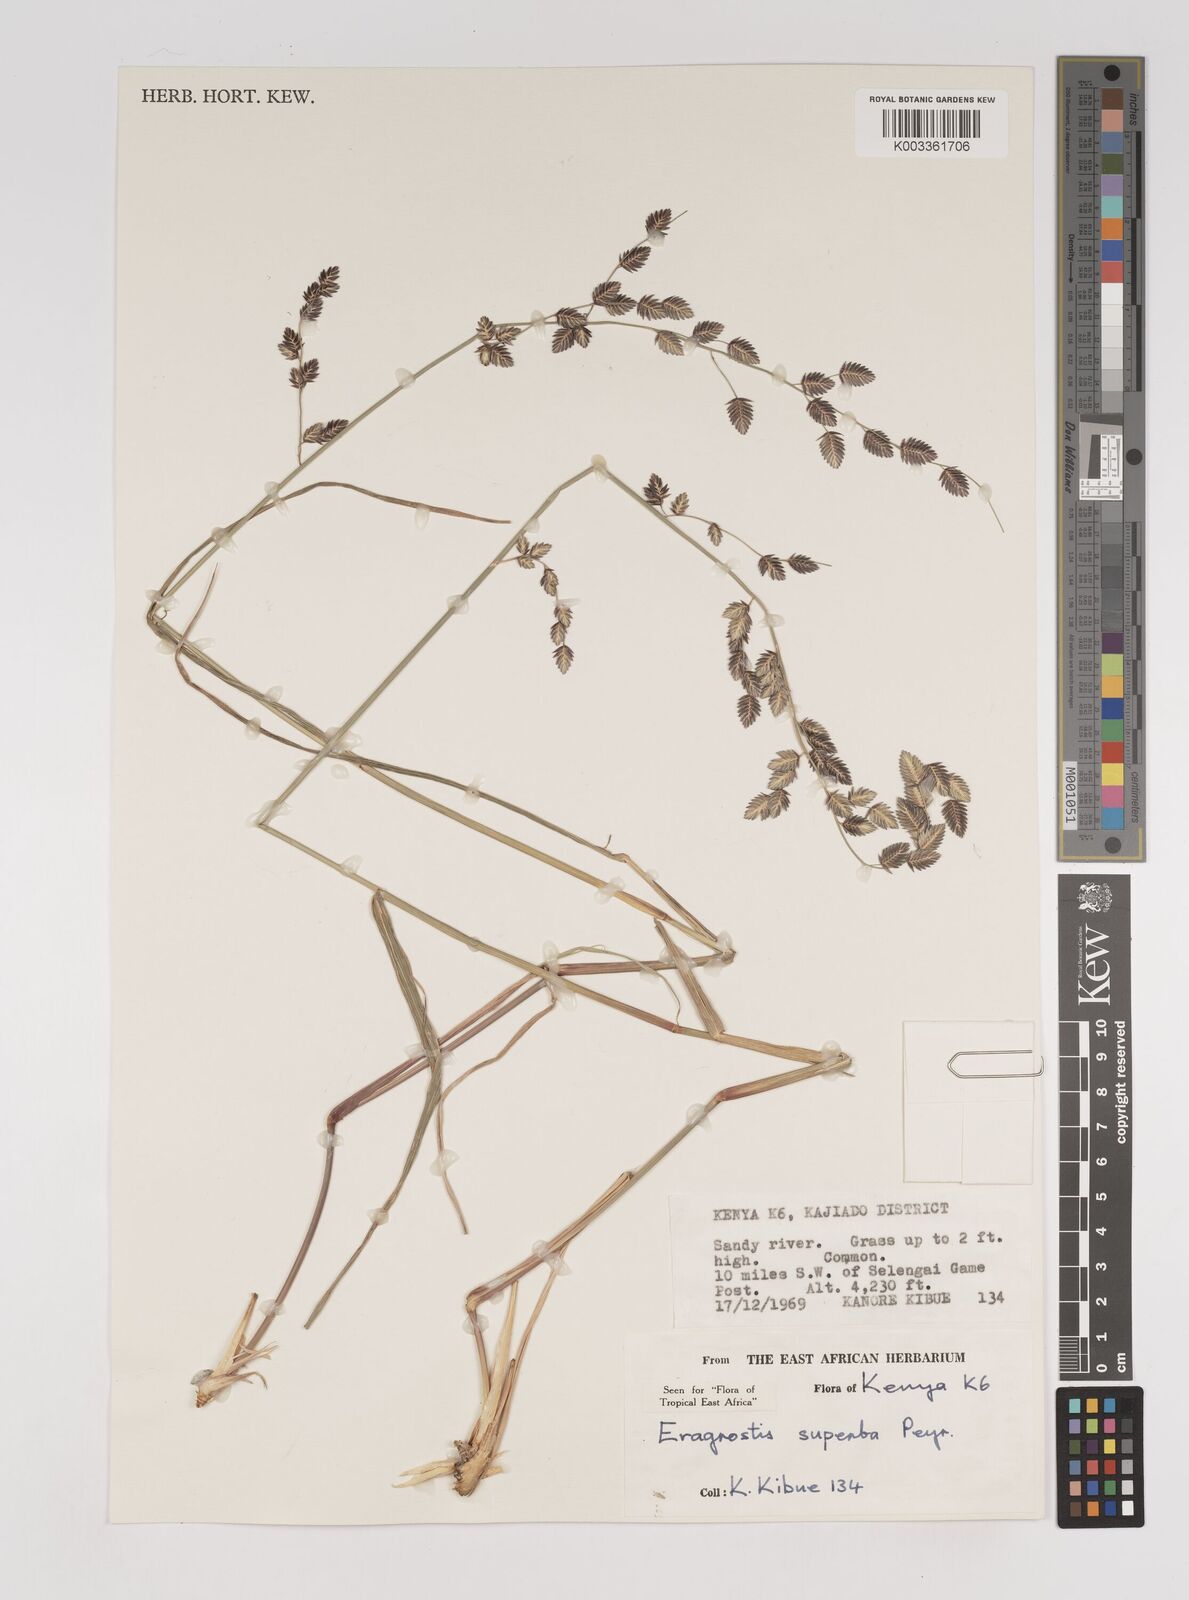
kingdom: Plantae
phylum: Tracheophyta
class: Liliopsida
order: Poales
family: Poaceae
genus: Eragrostis
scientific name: Eragrostis superba
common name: Wilman lovegrass
